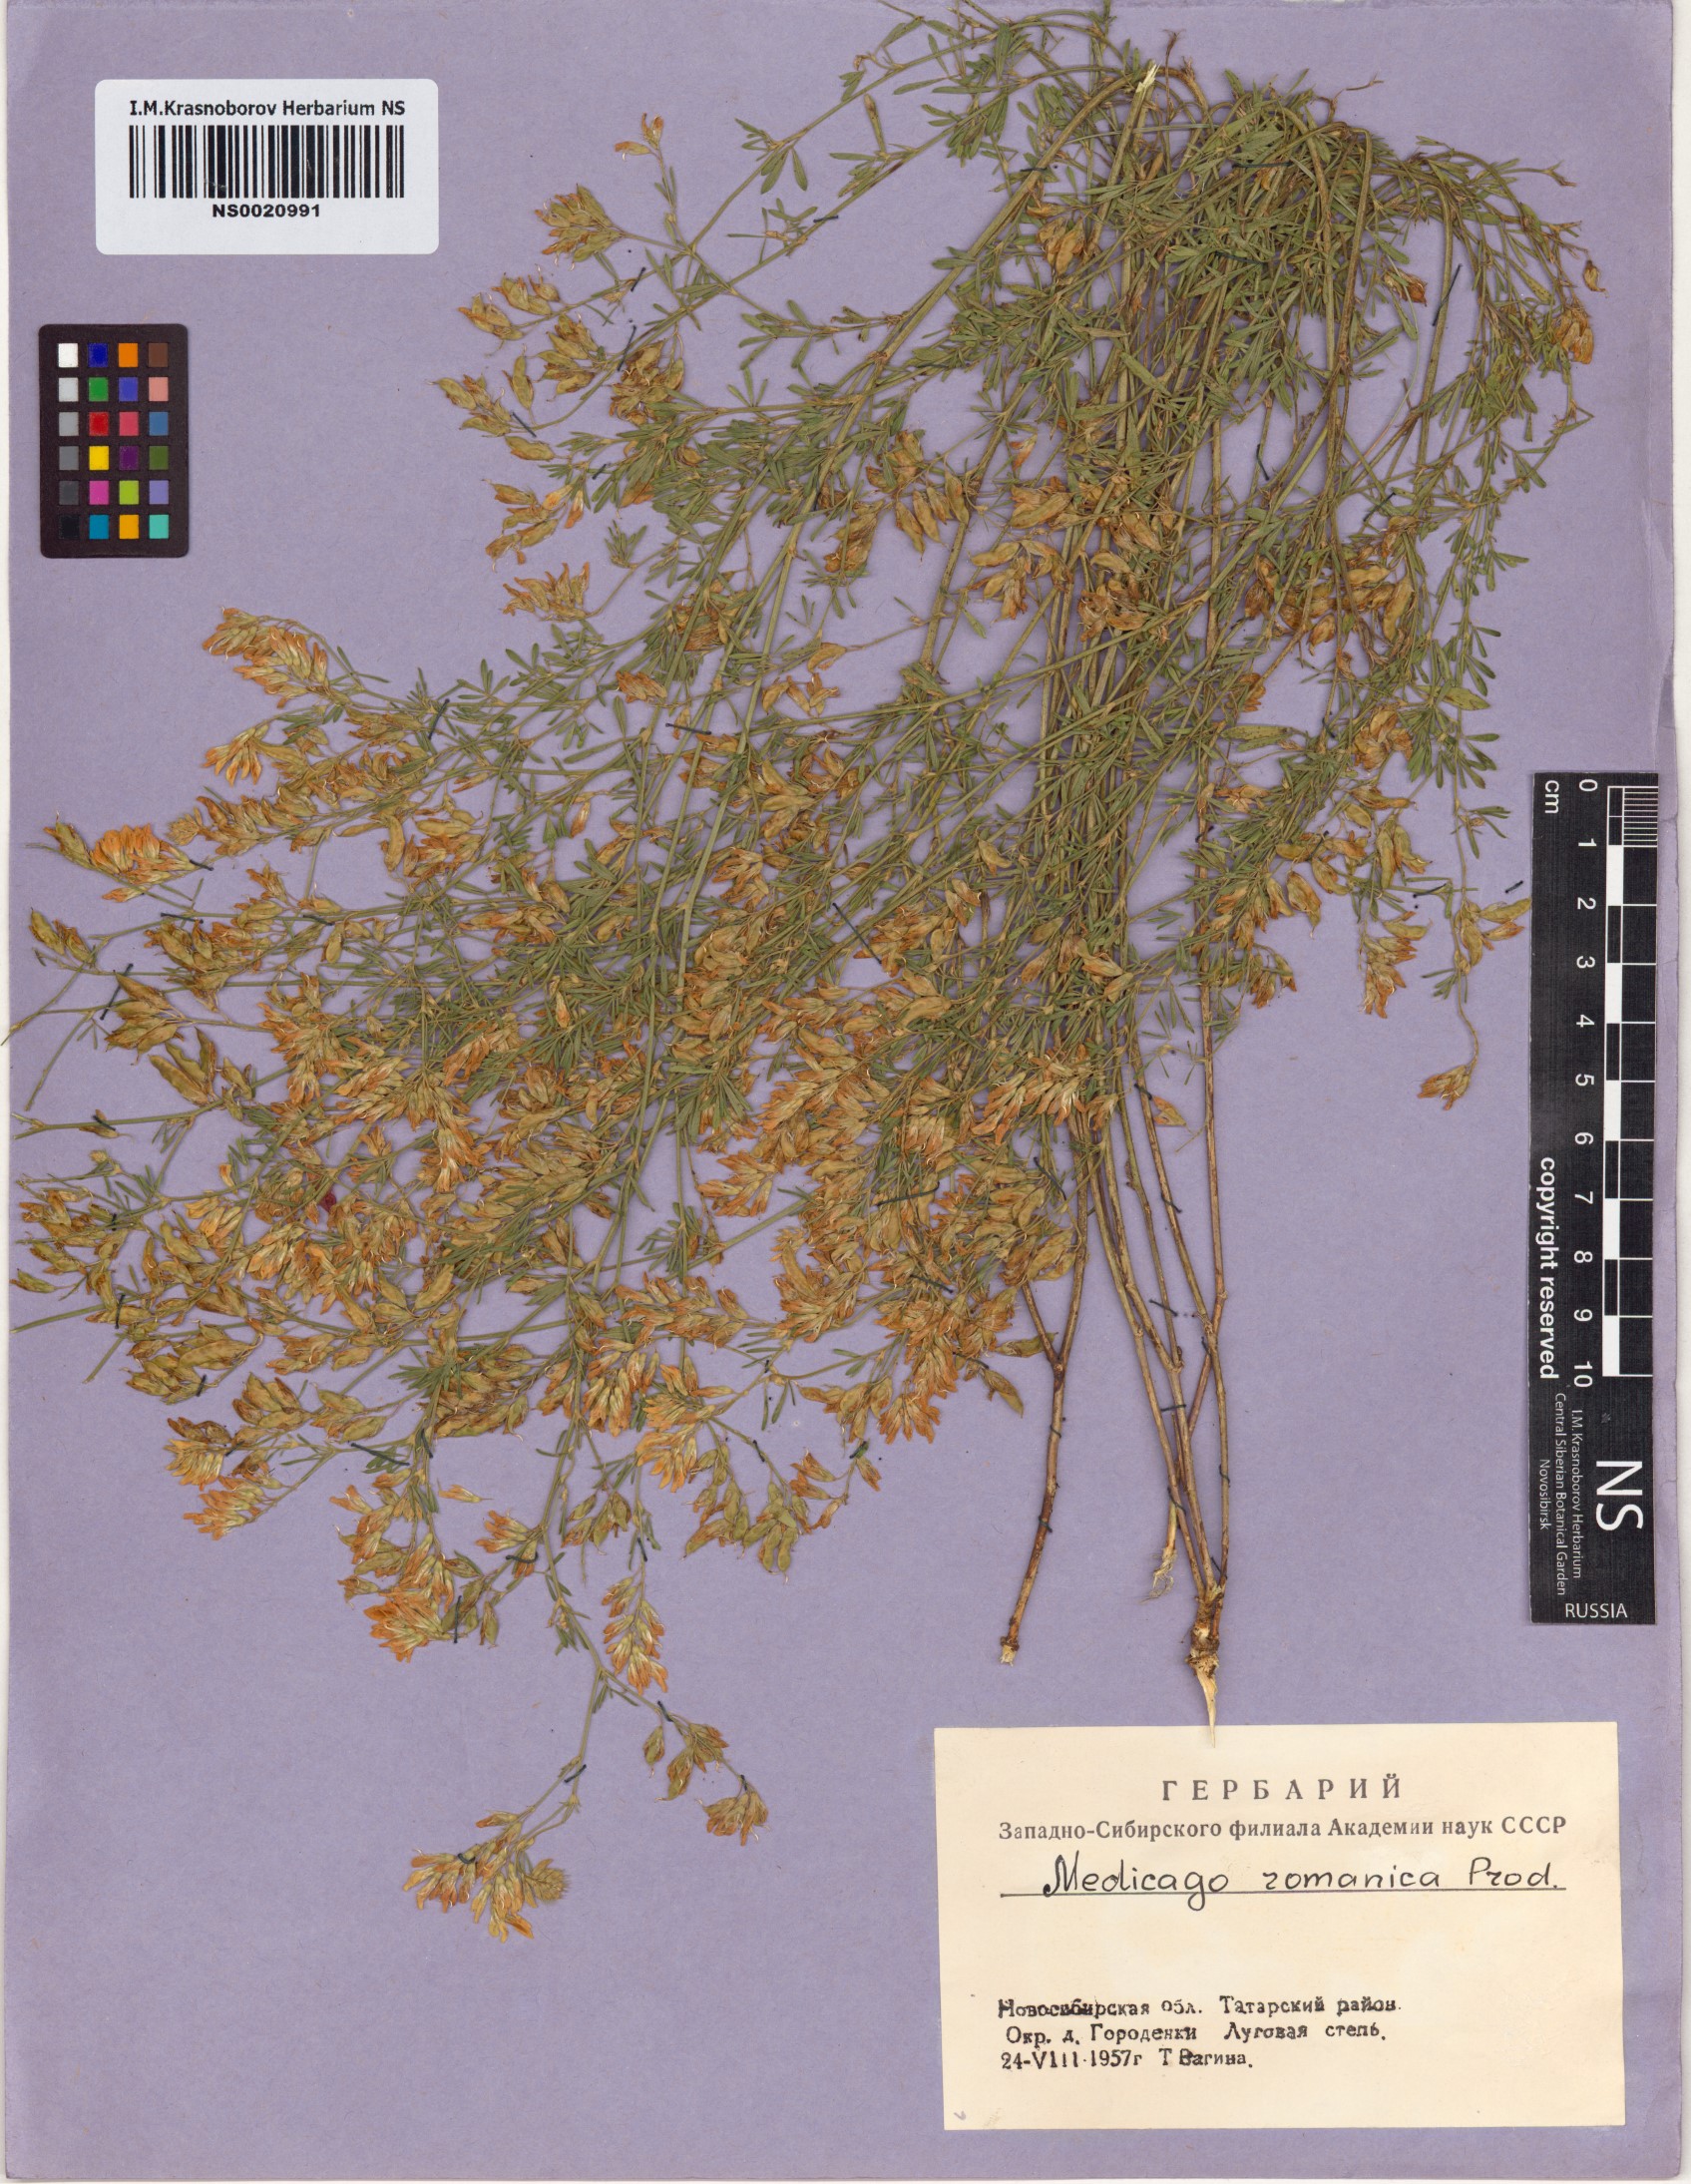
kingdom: Plantae
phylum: Tracheophyta
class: Magnoliopsida
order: Fabales
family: Fabaceae
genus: Medicago
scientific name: Medicago falcata
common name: Sickle medick
